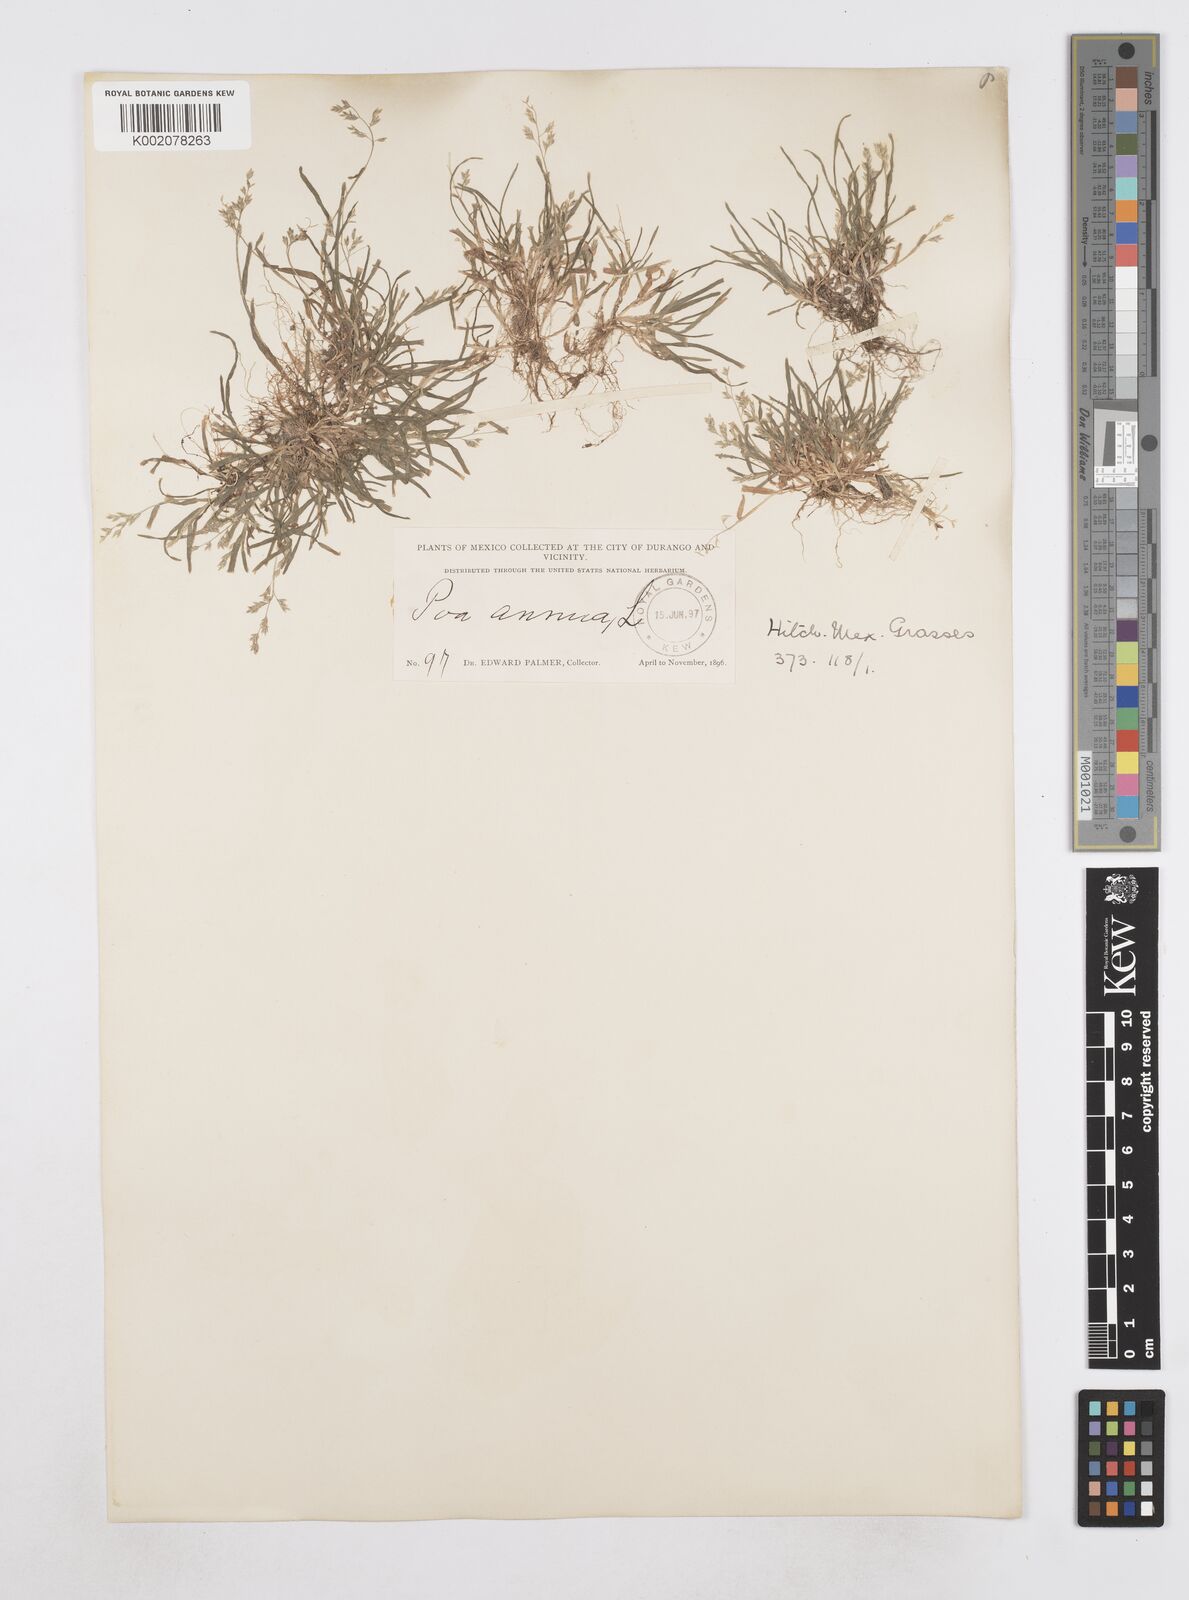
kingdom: Plantae
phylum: Tracheophyta
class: Liliopsida
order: Poales
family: Poaceae
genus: Poa
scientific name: Poa annua
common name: Annual bluegrass
